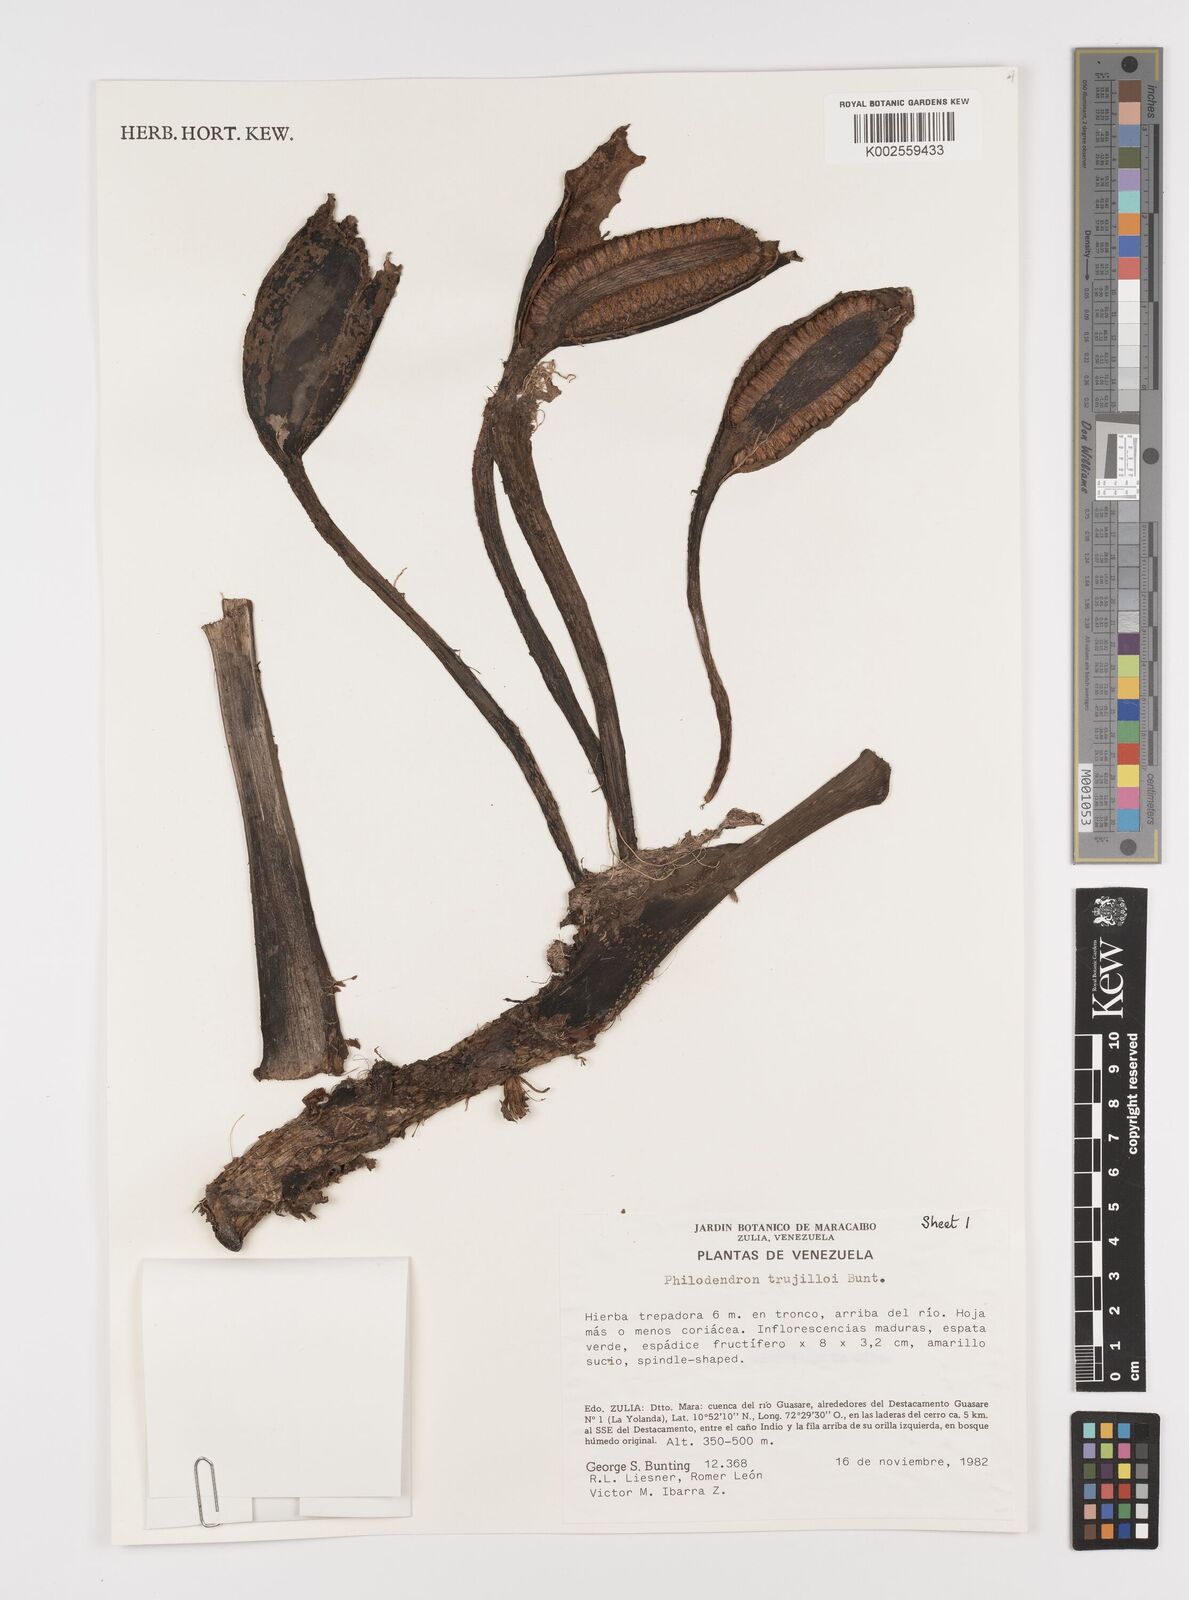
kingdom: Plantae
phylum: Tracheophyta
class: Liliopsida
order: Alismatales
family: Araceae
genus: Philodendron
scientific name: Philodendron trujilloi
